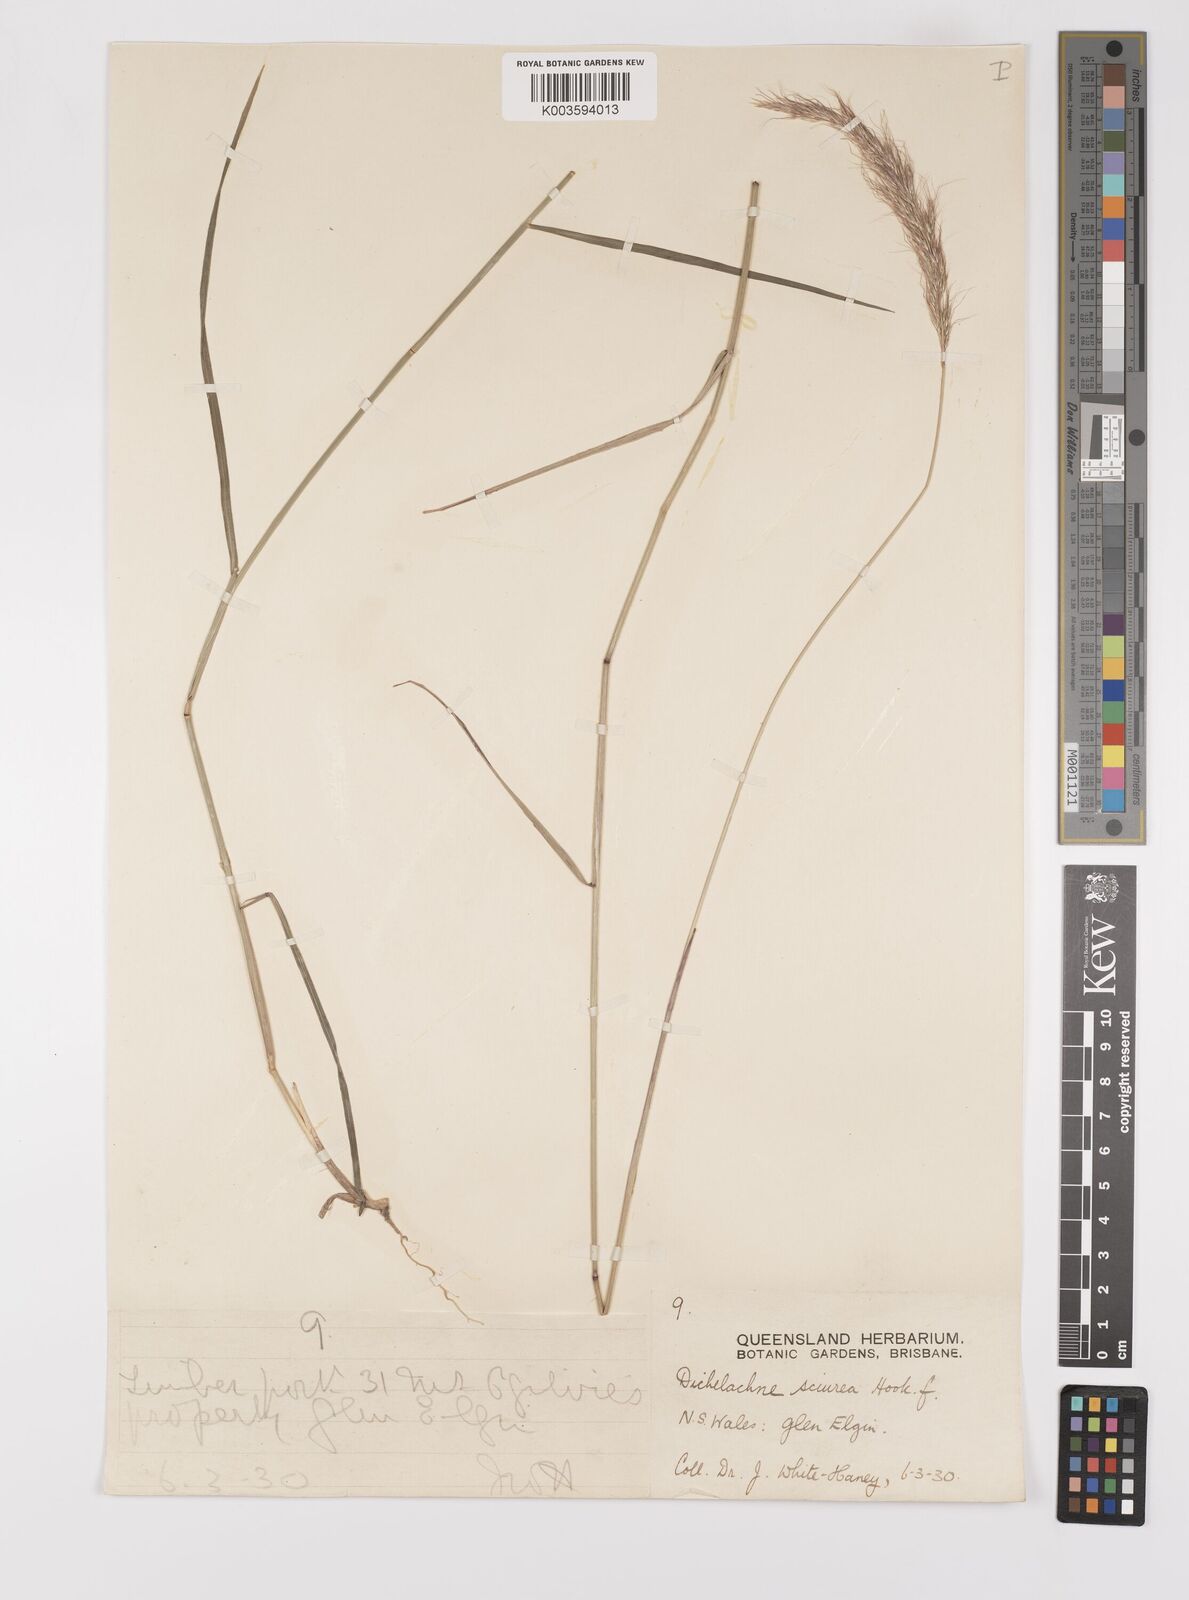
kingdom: Plantae
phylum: Tracheophyta
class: Liliopsida
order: Poales
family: Poaceae
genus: Dichelachne
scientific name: Dichelachne micrantha
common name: Plumegrass
